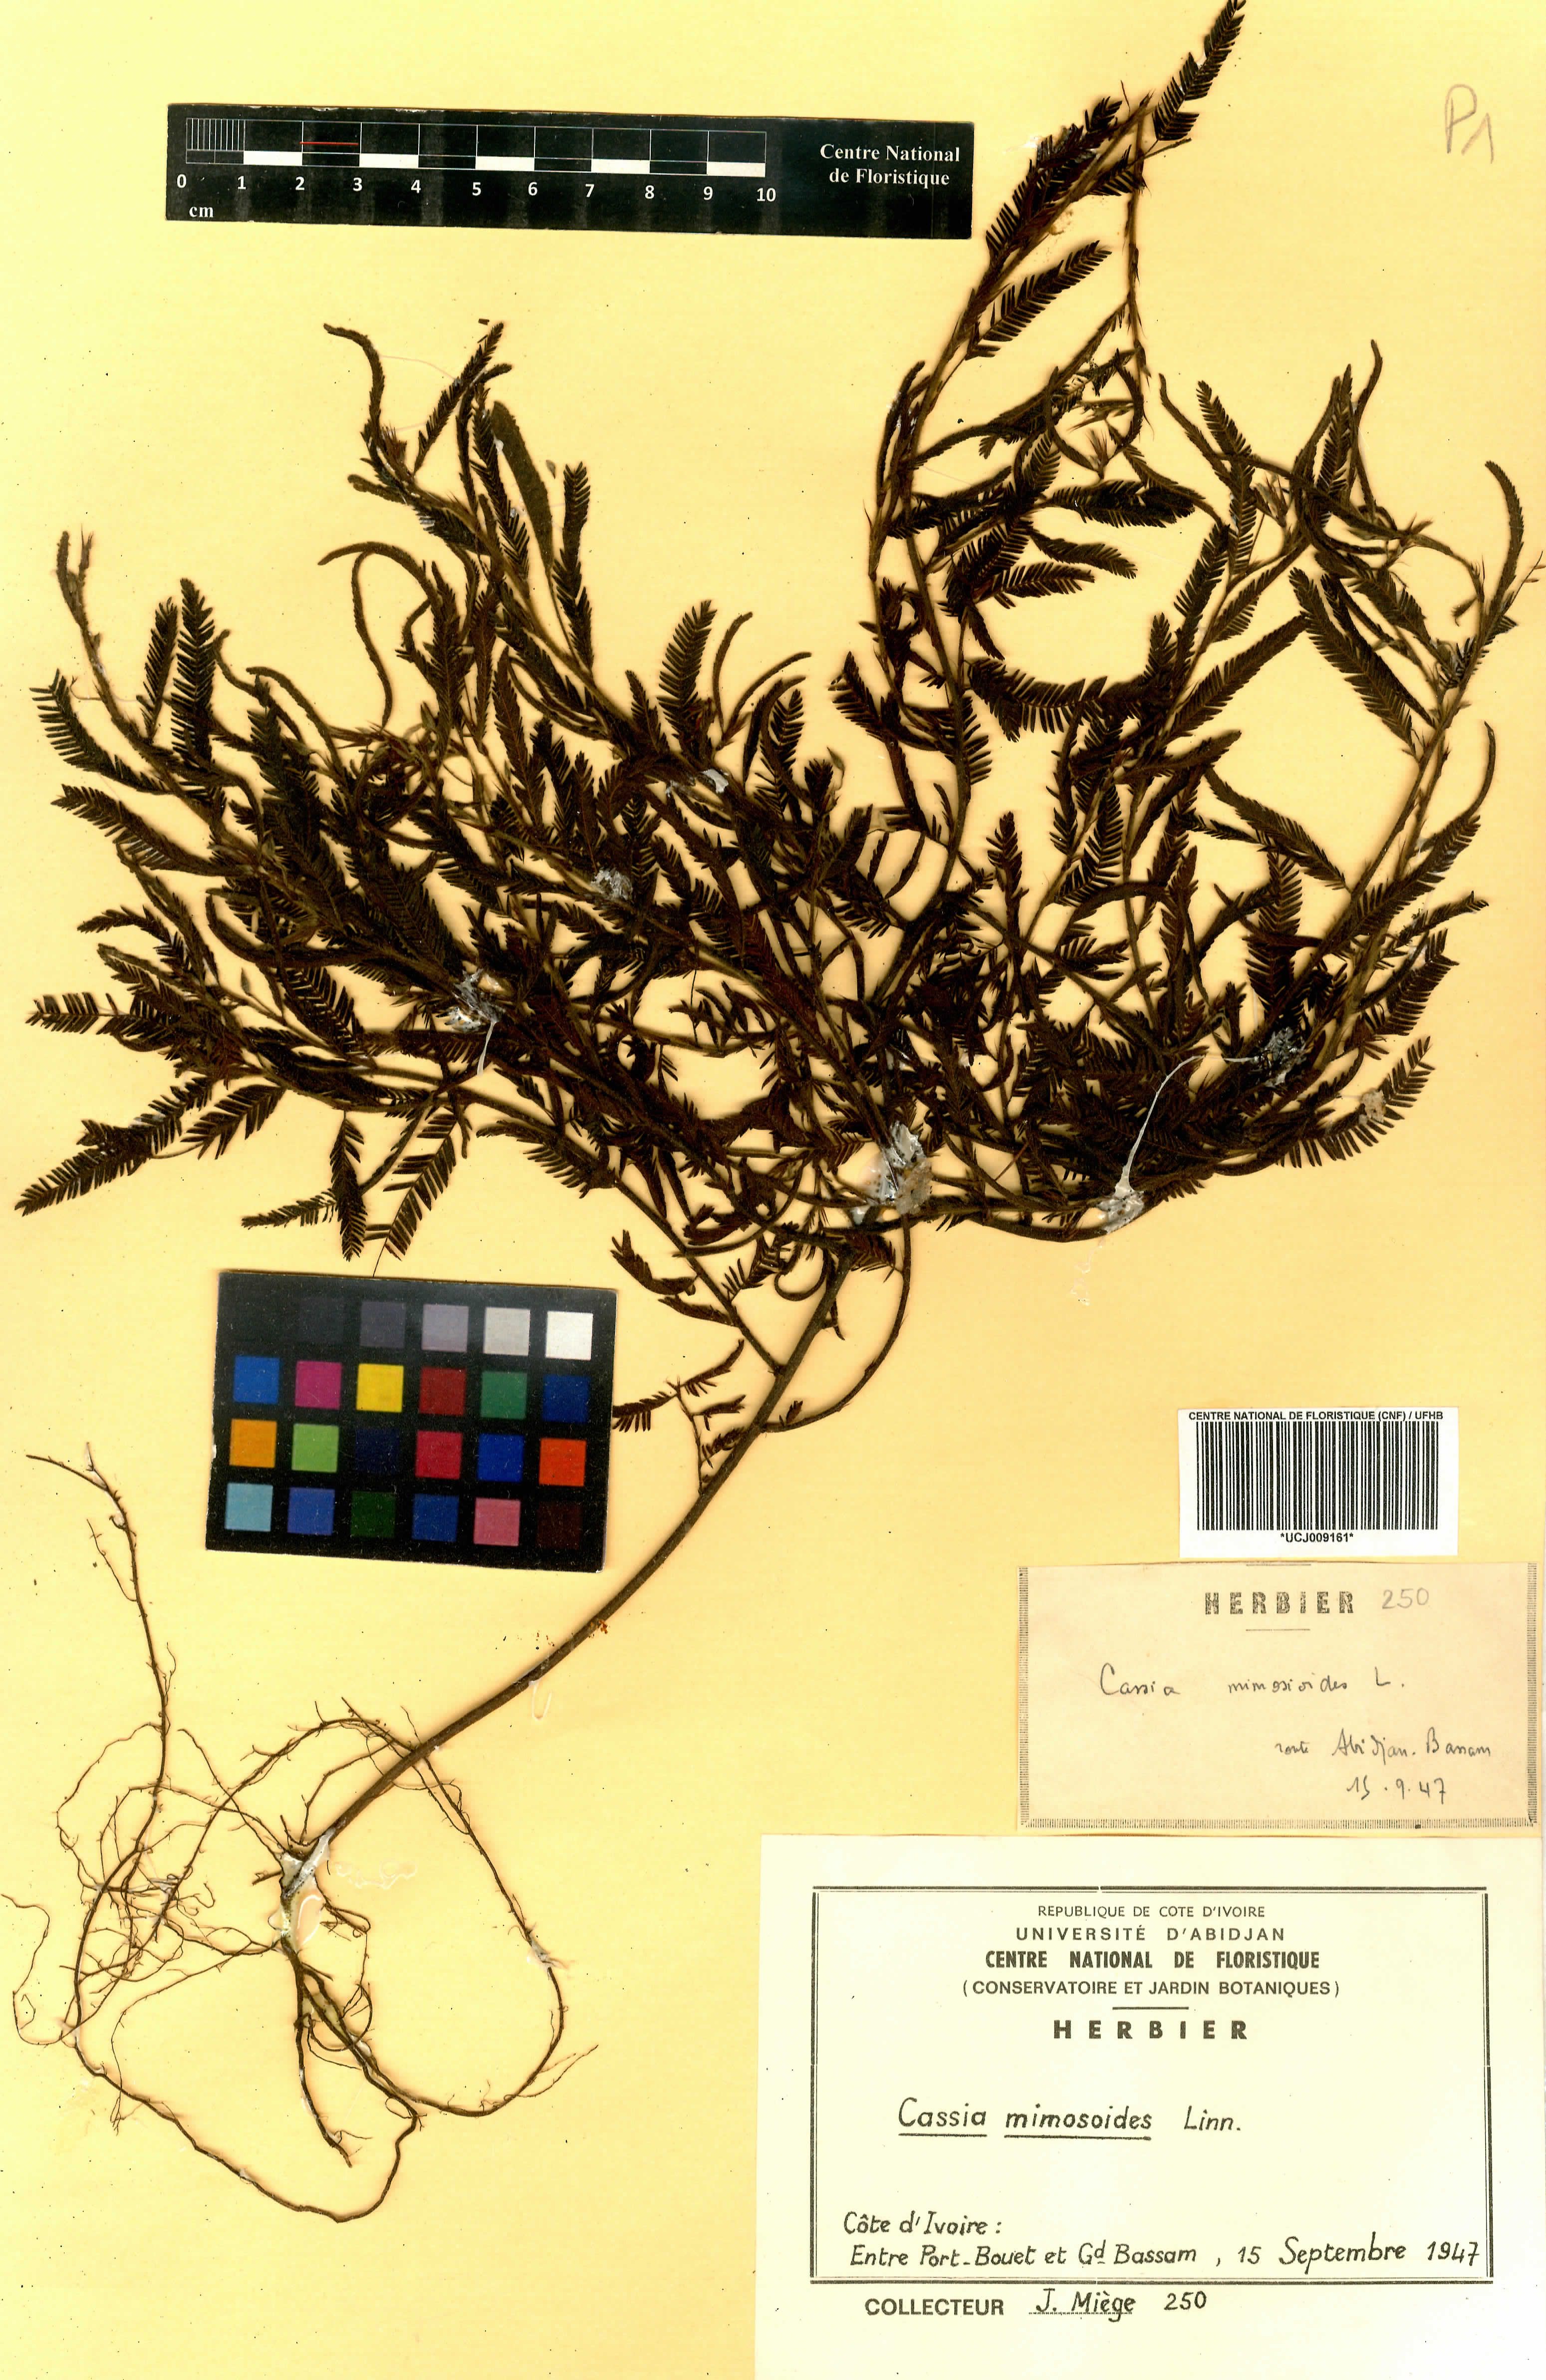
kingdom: Plantae
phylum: Tracheophyta
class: Magnoliopsida
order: Fabales
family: Fabaceae
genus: Chamaecrista
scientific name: Chamaecrista mimosoides
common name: Fish-bone cassia
